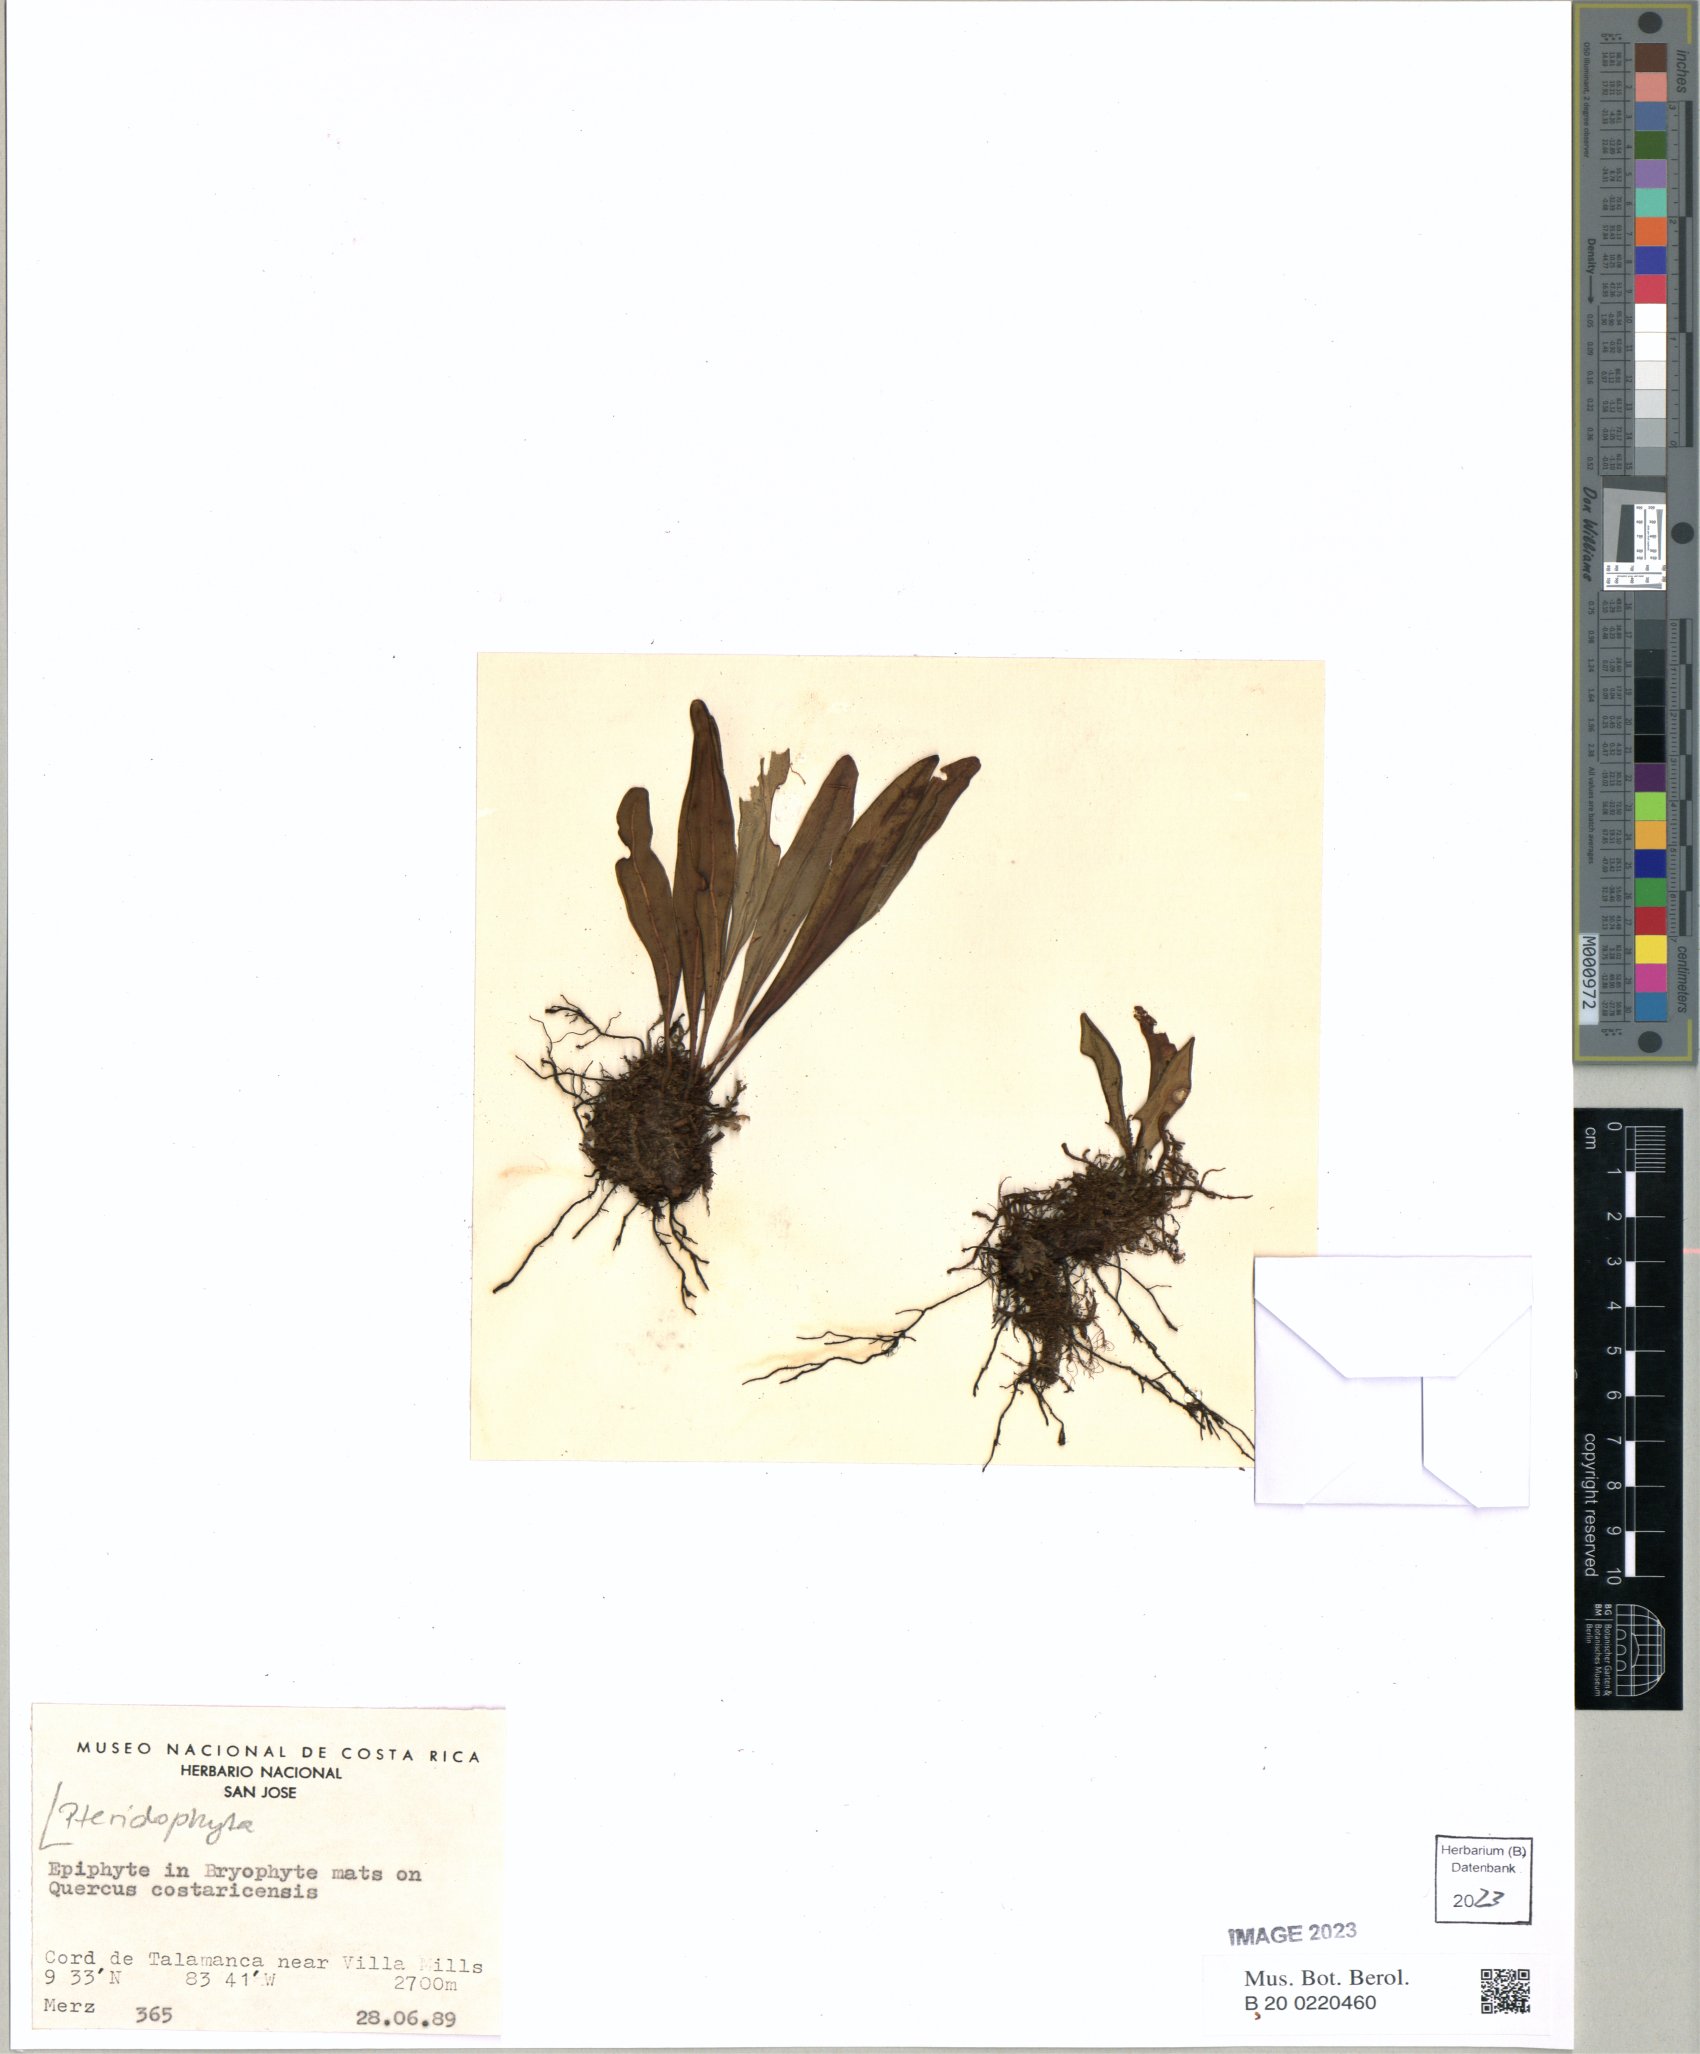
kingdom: Plantae
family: Pteridophyta
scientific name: Pteridophyta
